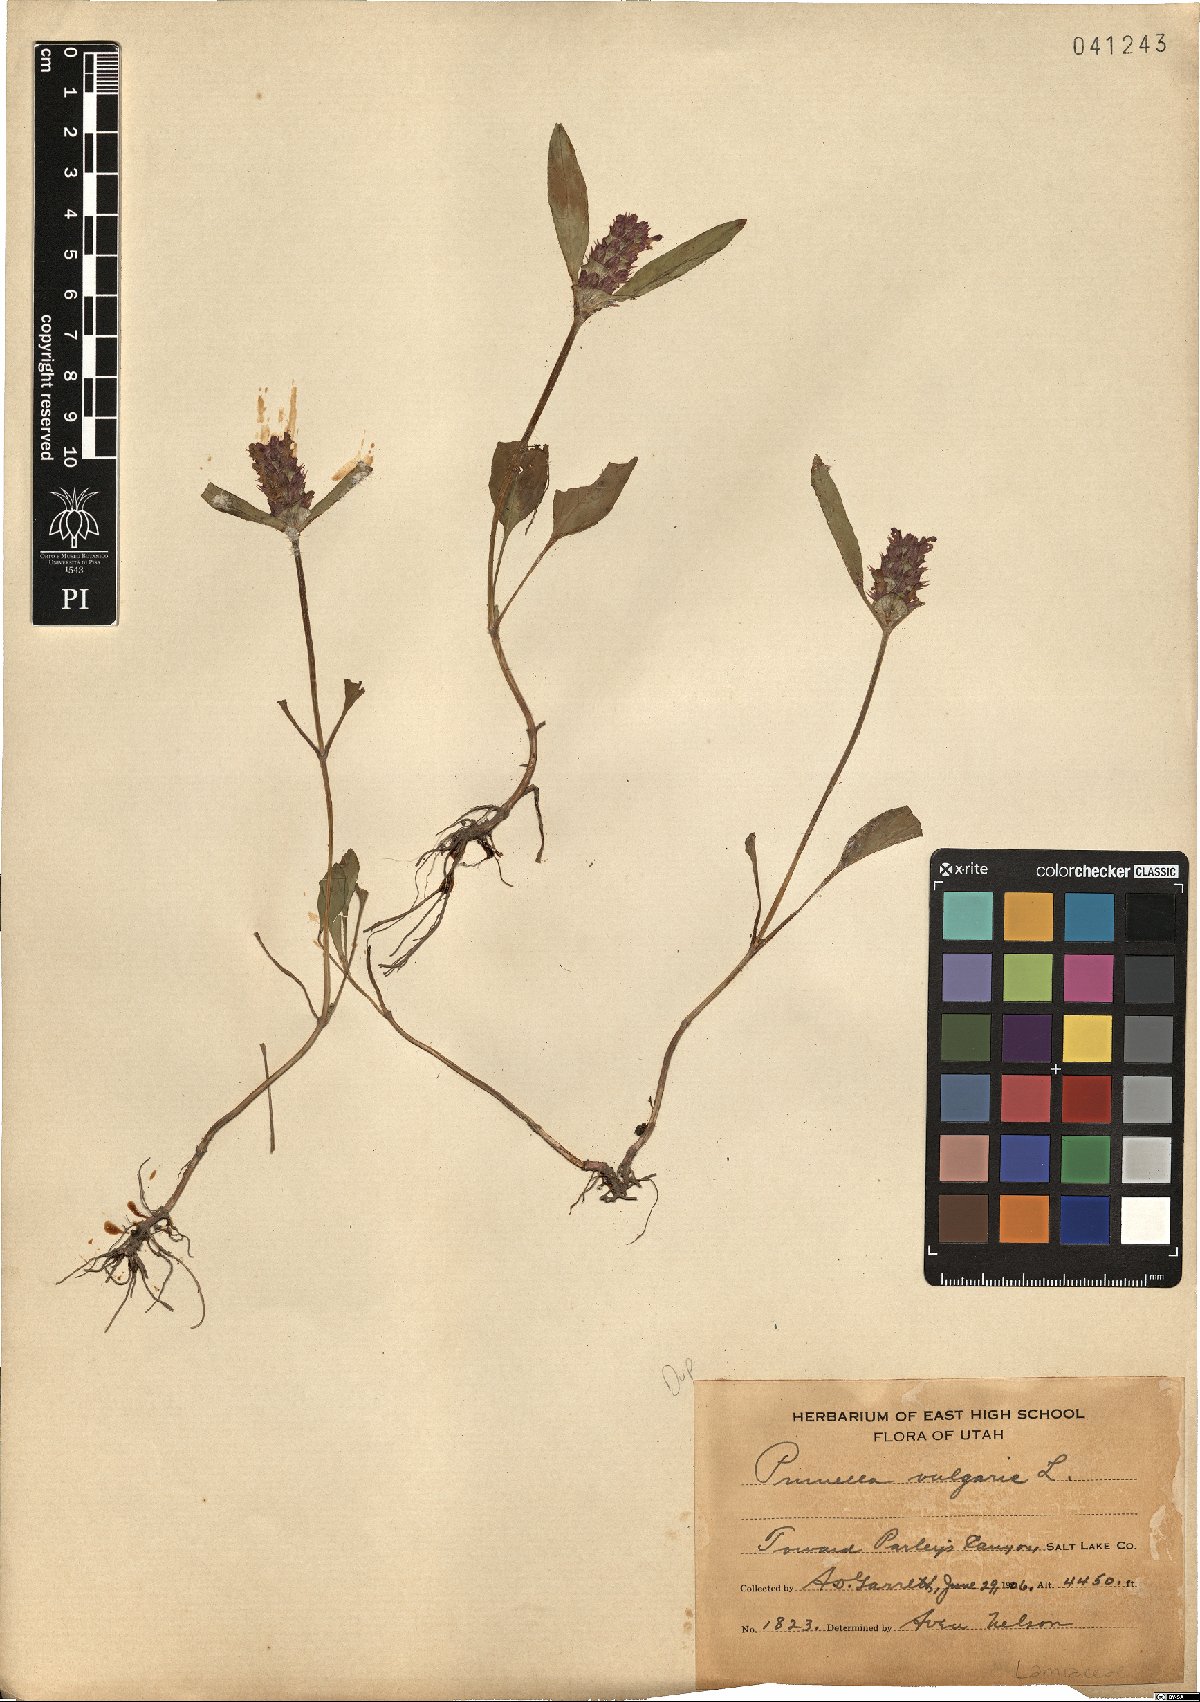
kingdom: Plantae
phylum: Tracheophyta
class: Magnoliopsida
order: Lamiales
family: Lamiaceae
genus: Prunella
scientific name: Prunella vulgaris
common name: Heal-all
